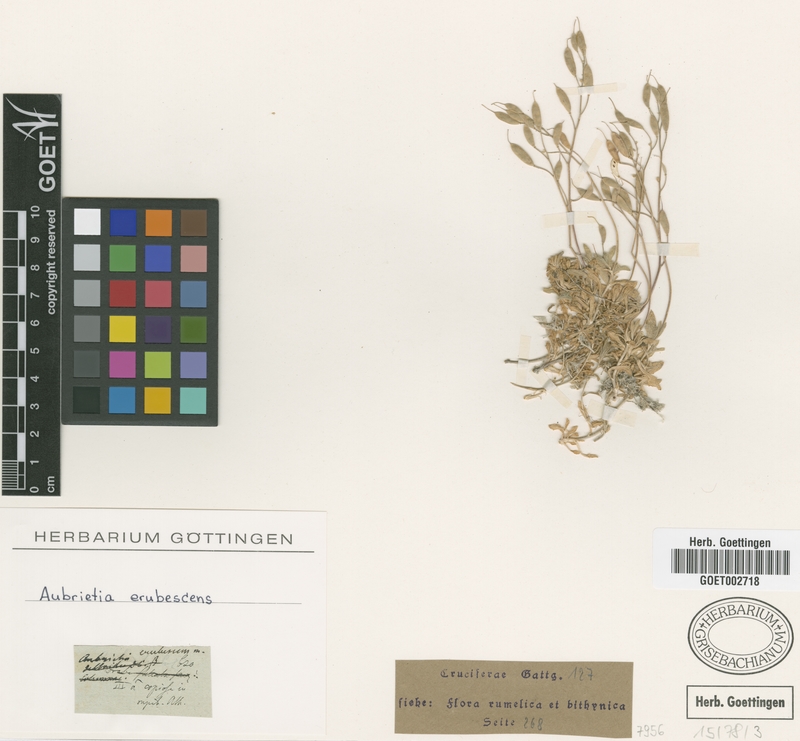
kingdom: Plantae
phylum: Tracheophyta
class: Magnoliopsida
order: Brassicales
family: Brassicaceae
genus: Aubrieta
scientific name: Aubrieta erubescens
